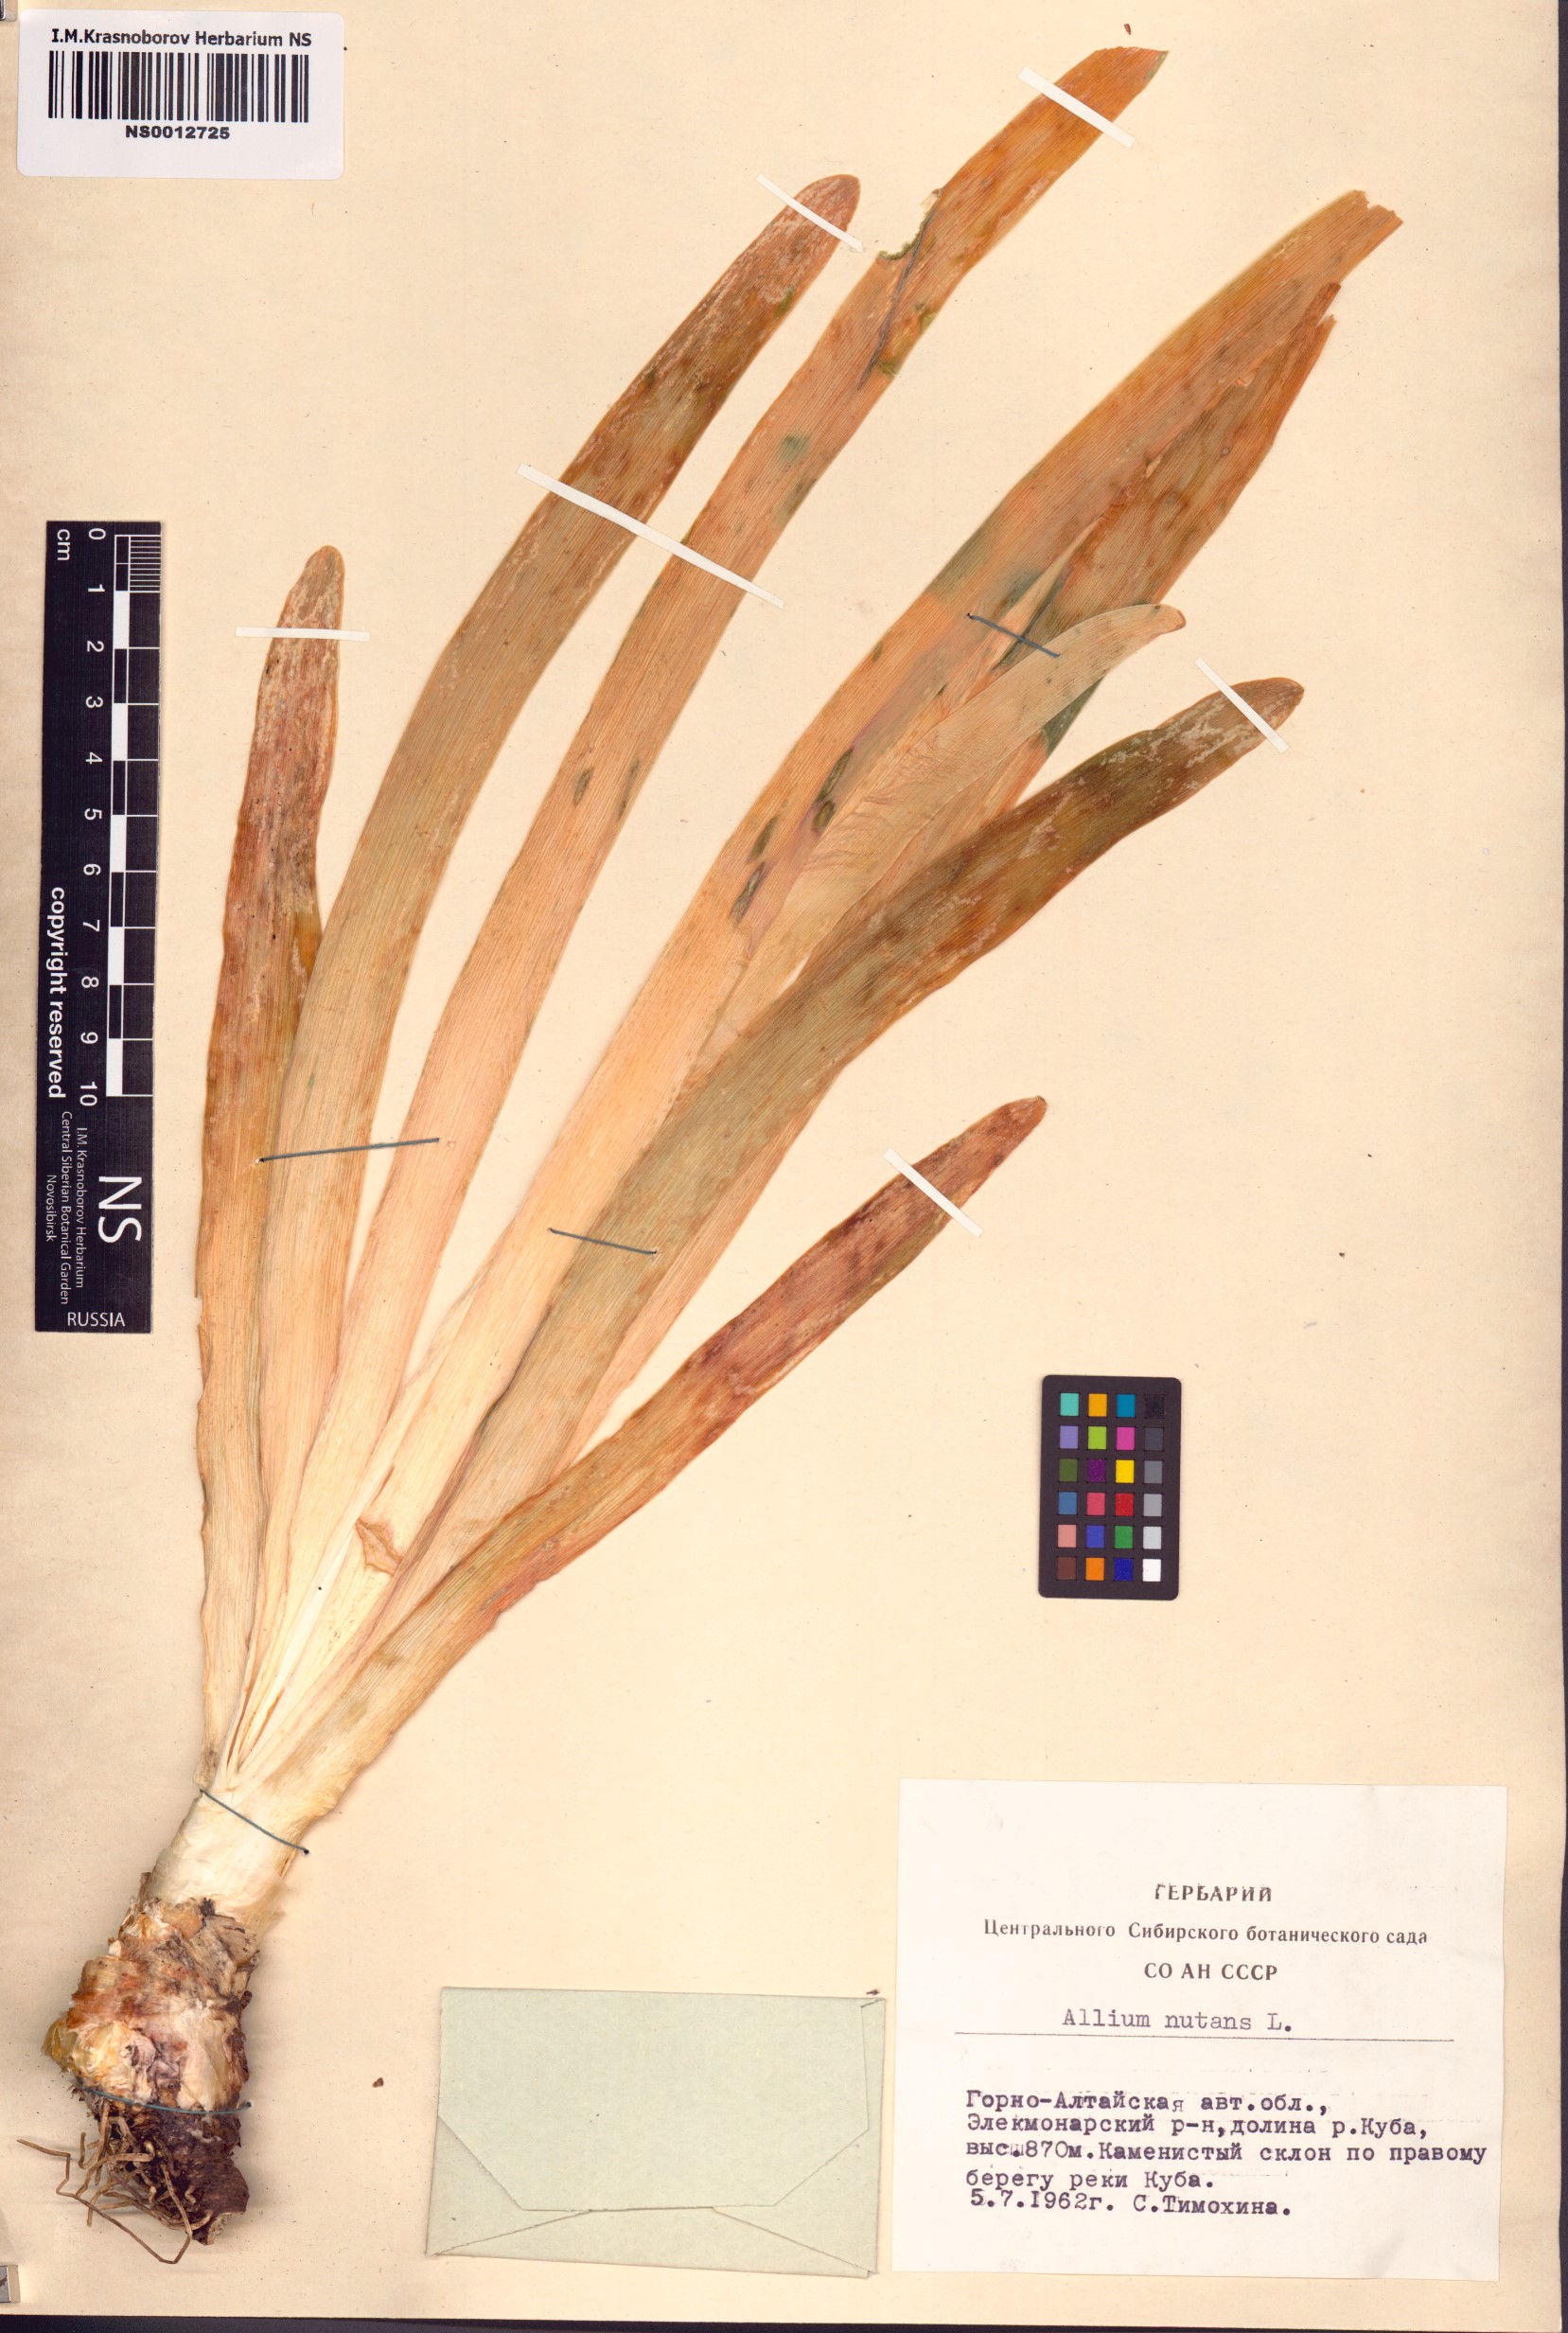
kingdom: Plantae
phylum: Tracheophyta
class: Liliopsida
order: Asparagales
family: Amaryllidaceae
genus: Allium
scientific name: Allium nutans
